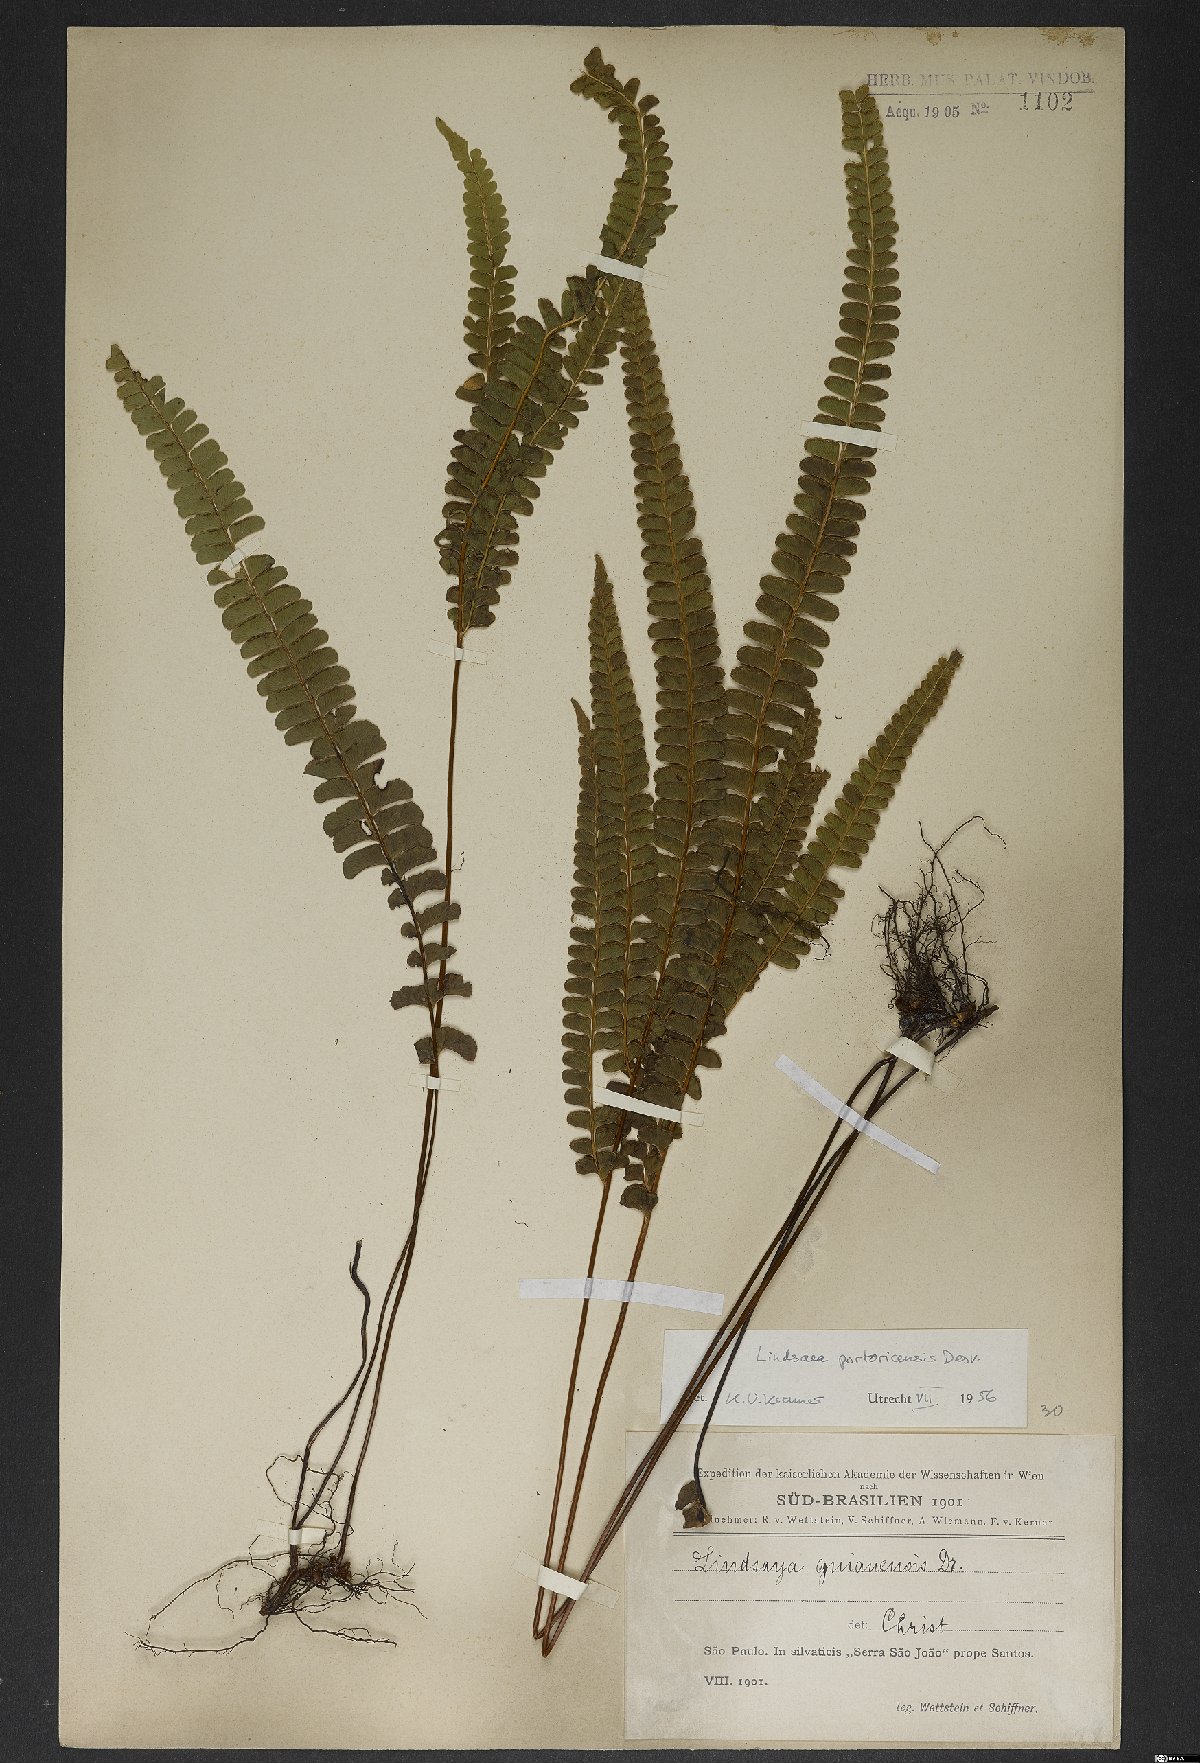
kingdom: Plantae
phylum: Tracheophyta
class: Polypodiopsida
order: Polypodiales
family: Lindsaeaceae
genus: Lindsaea
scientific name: Lindsaea portoricensis
